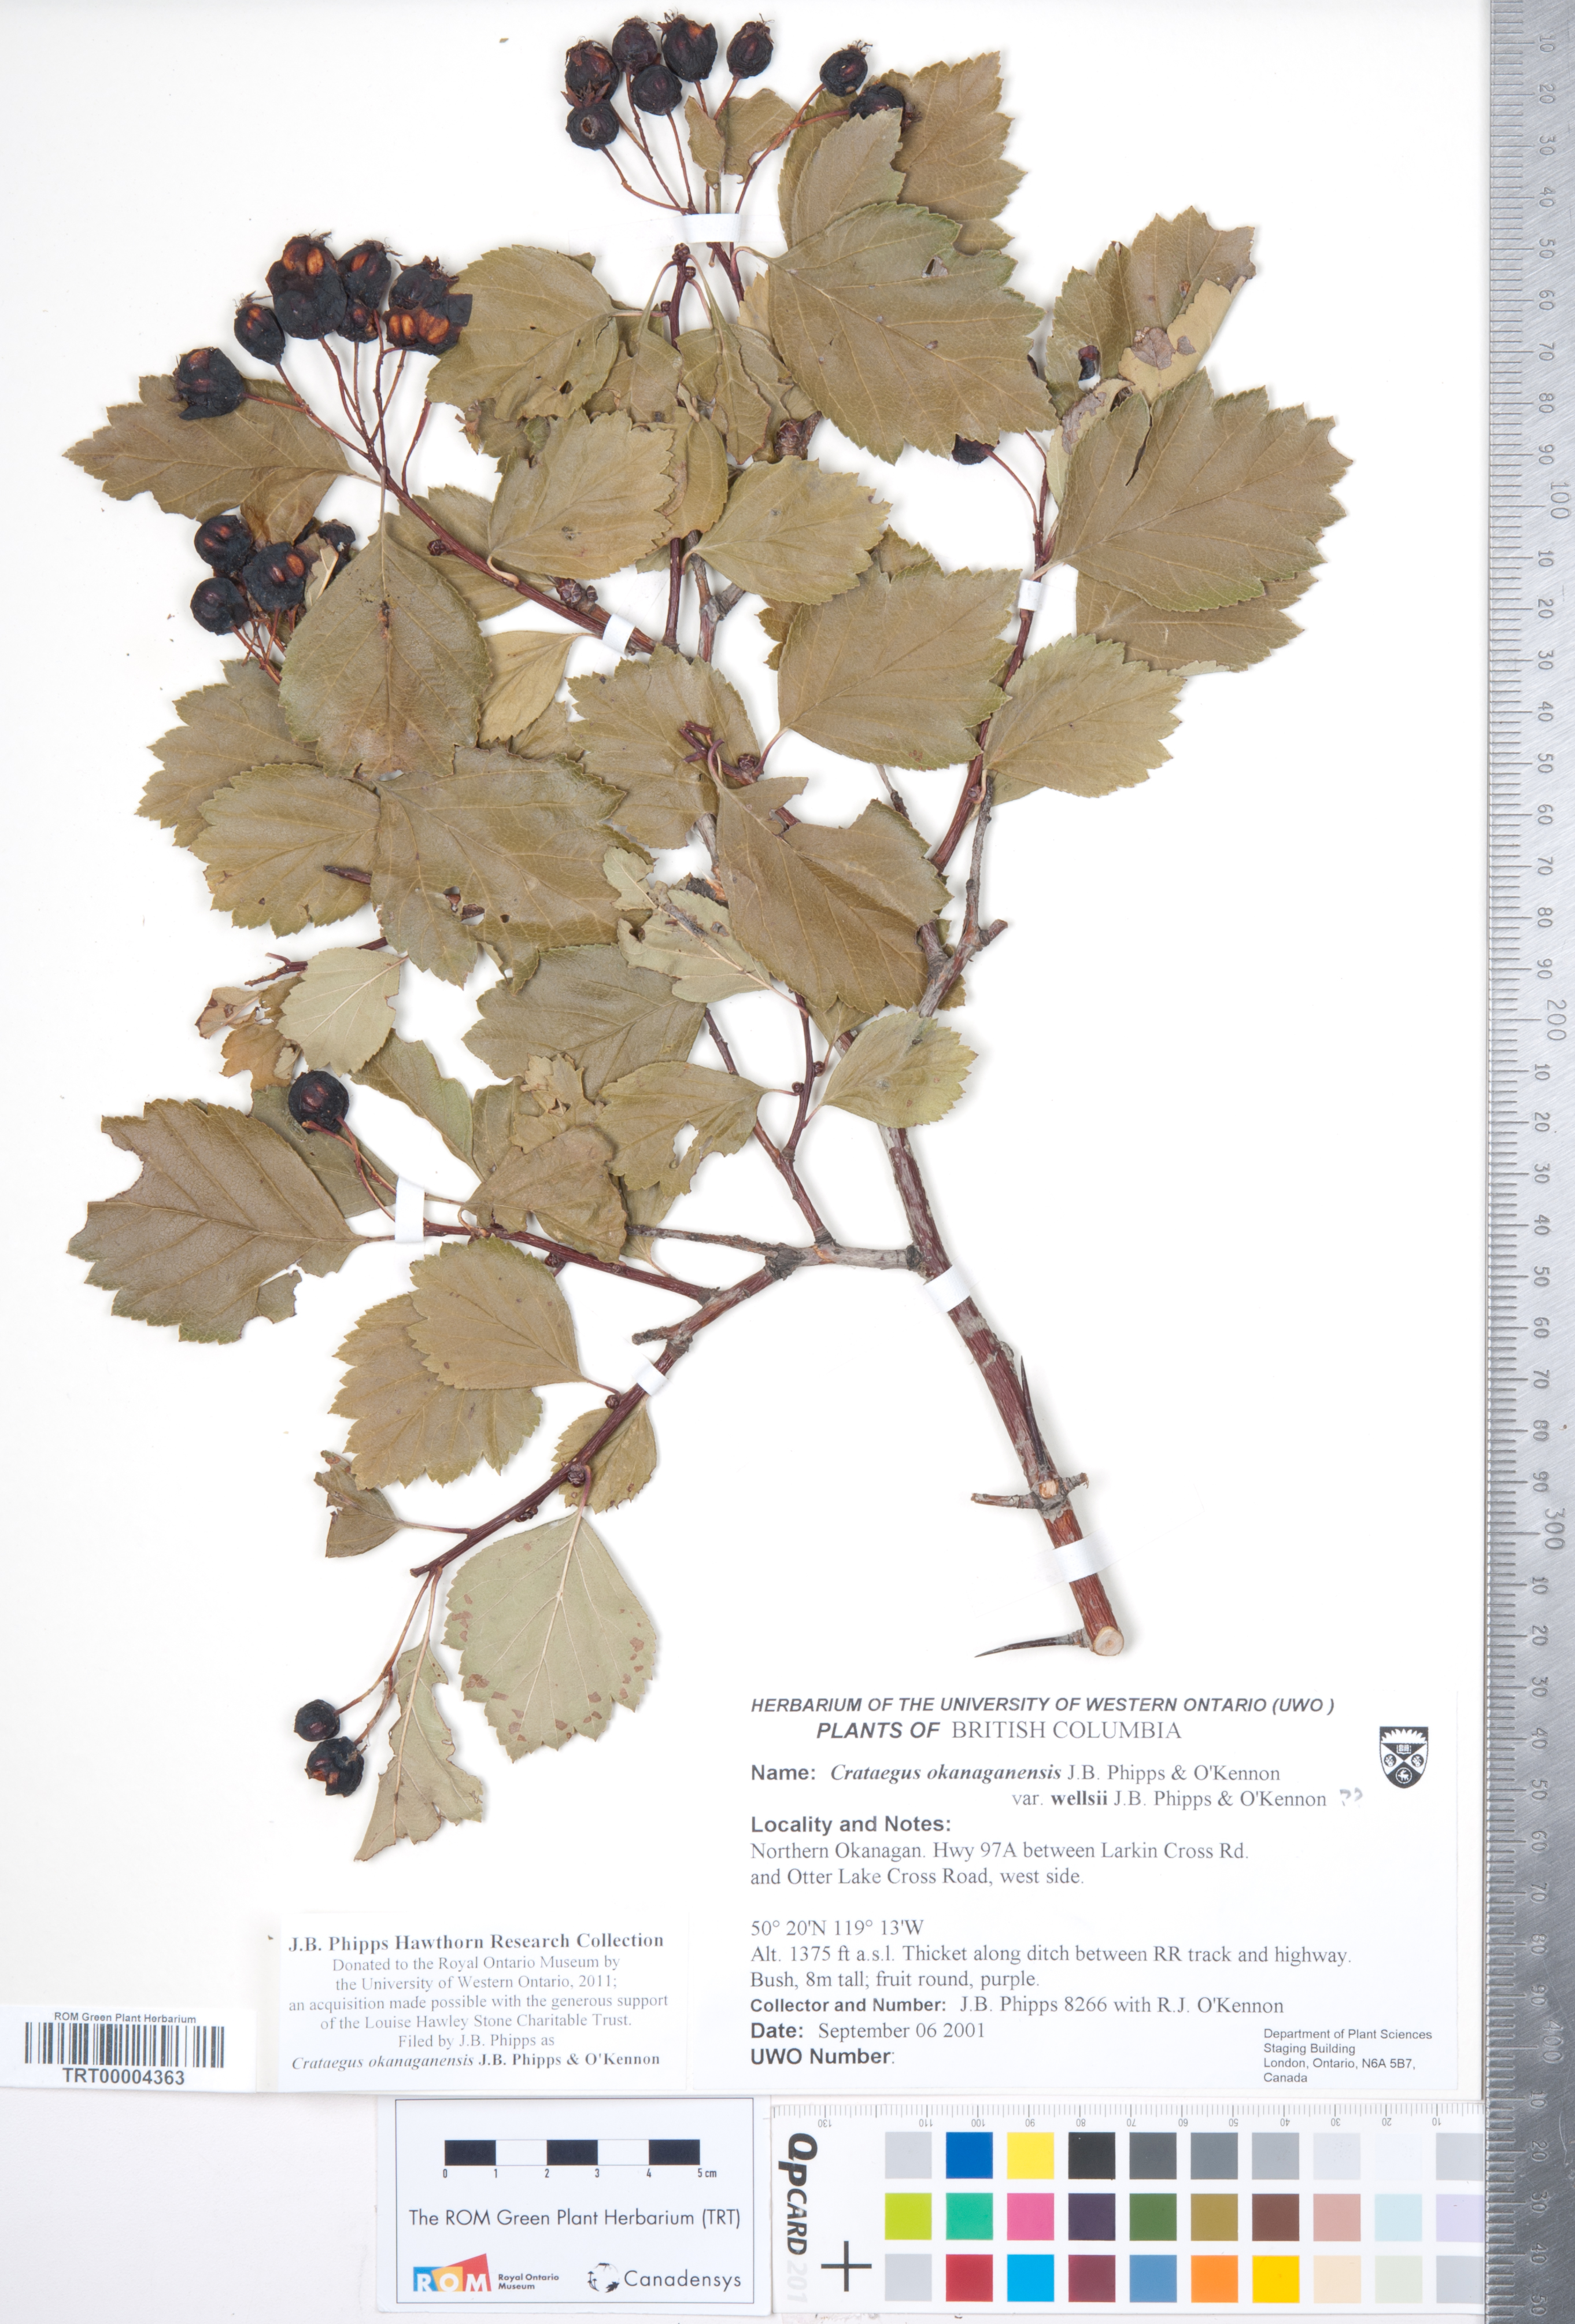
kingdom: Plantae
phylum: Tracheophyta
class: Magnoliopsida
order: Rosales
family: Rosaceae
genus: Crataegus
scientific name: Crataegus okanaganensis
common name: Okanagan valley hawthorn
